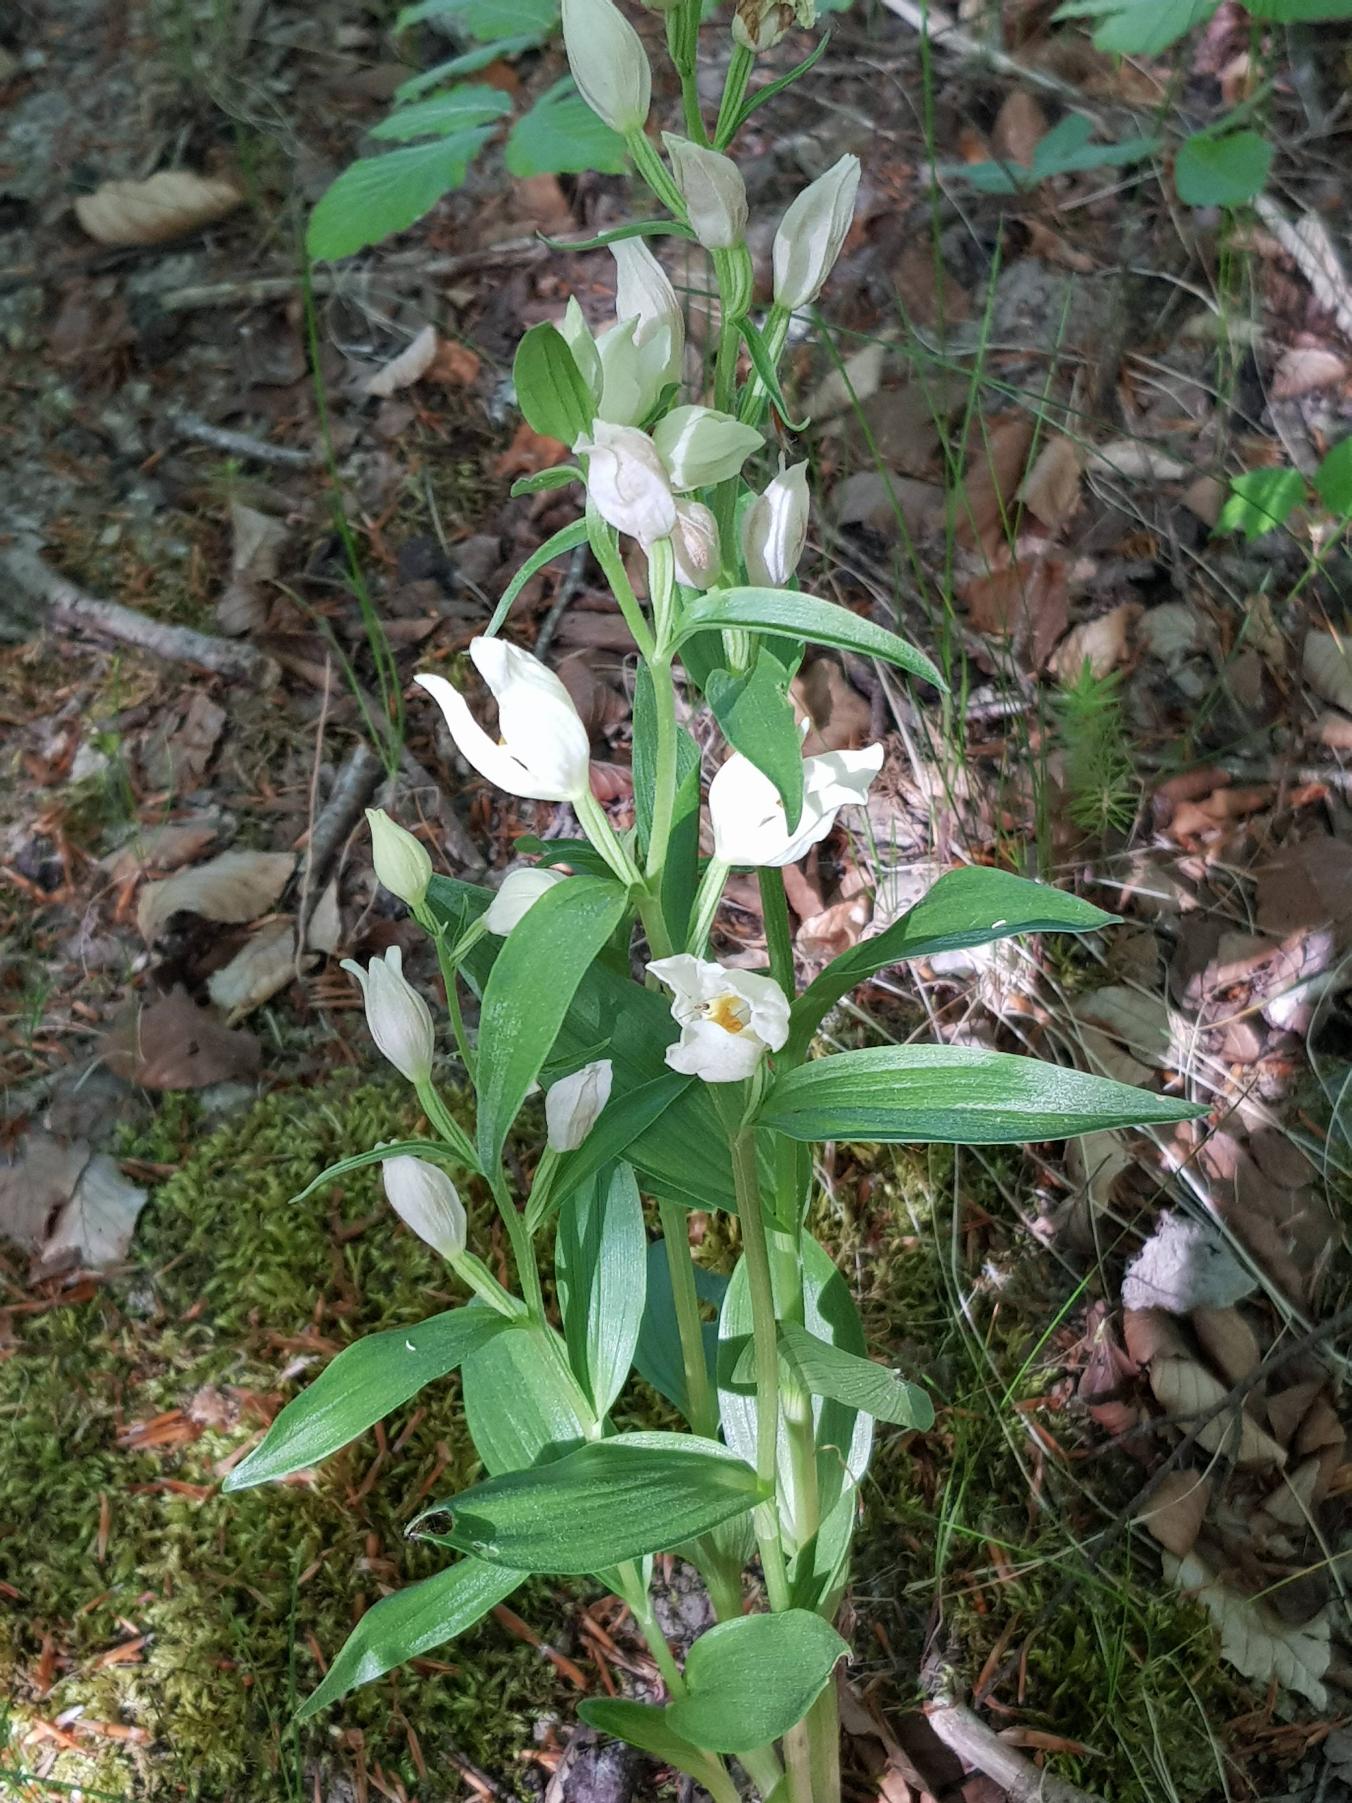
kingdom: Plantae
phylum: Tracheophyta
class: Liliopsida
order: Asparagales
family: Orchidaceae
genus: Cephalanthera
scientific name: Cephalanthera damasonium
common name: Hvidgul skovlilje
